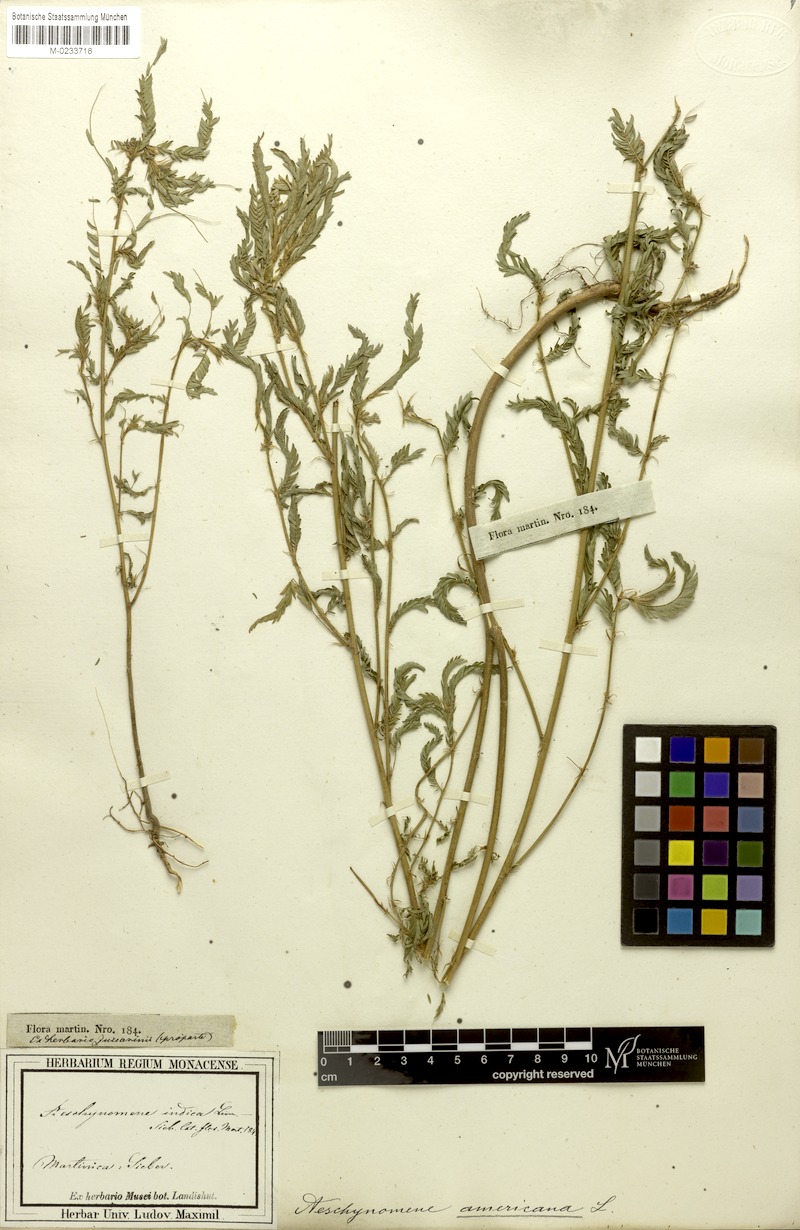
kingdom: Plantae
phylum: Tracheophyta
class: Magnoliopsida
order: Fabales
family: Fabaceae
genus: Aeschynomene
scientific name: Aeschynomene villosa
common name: Hairy-jointvetch
